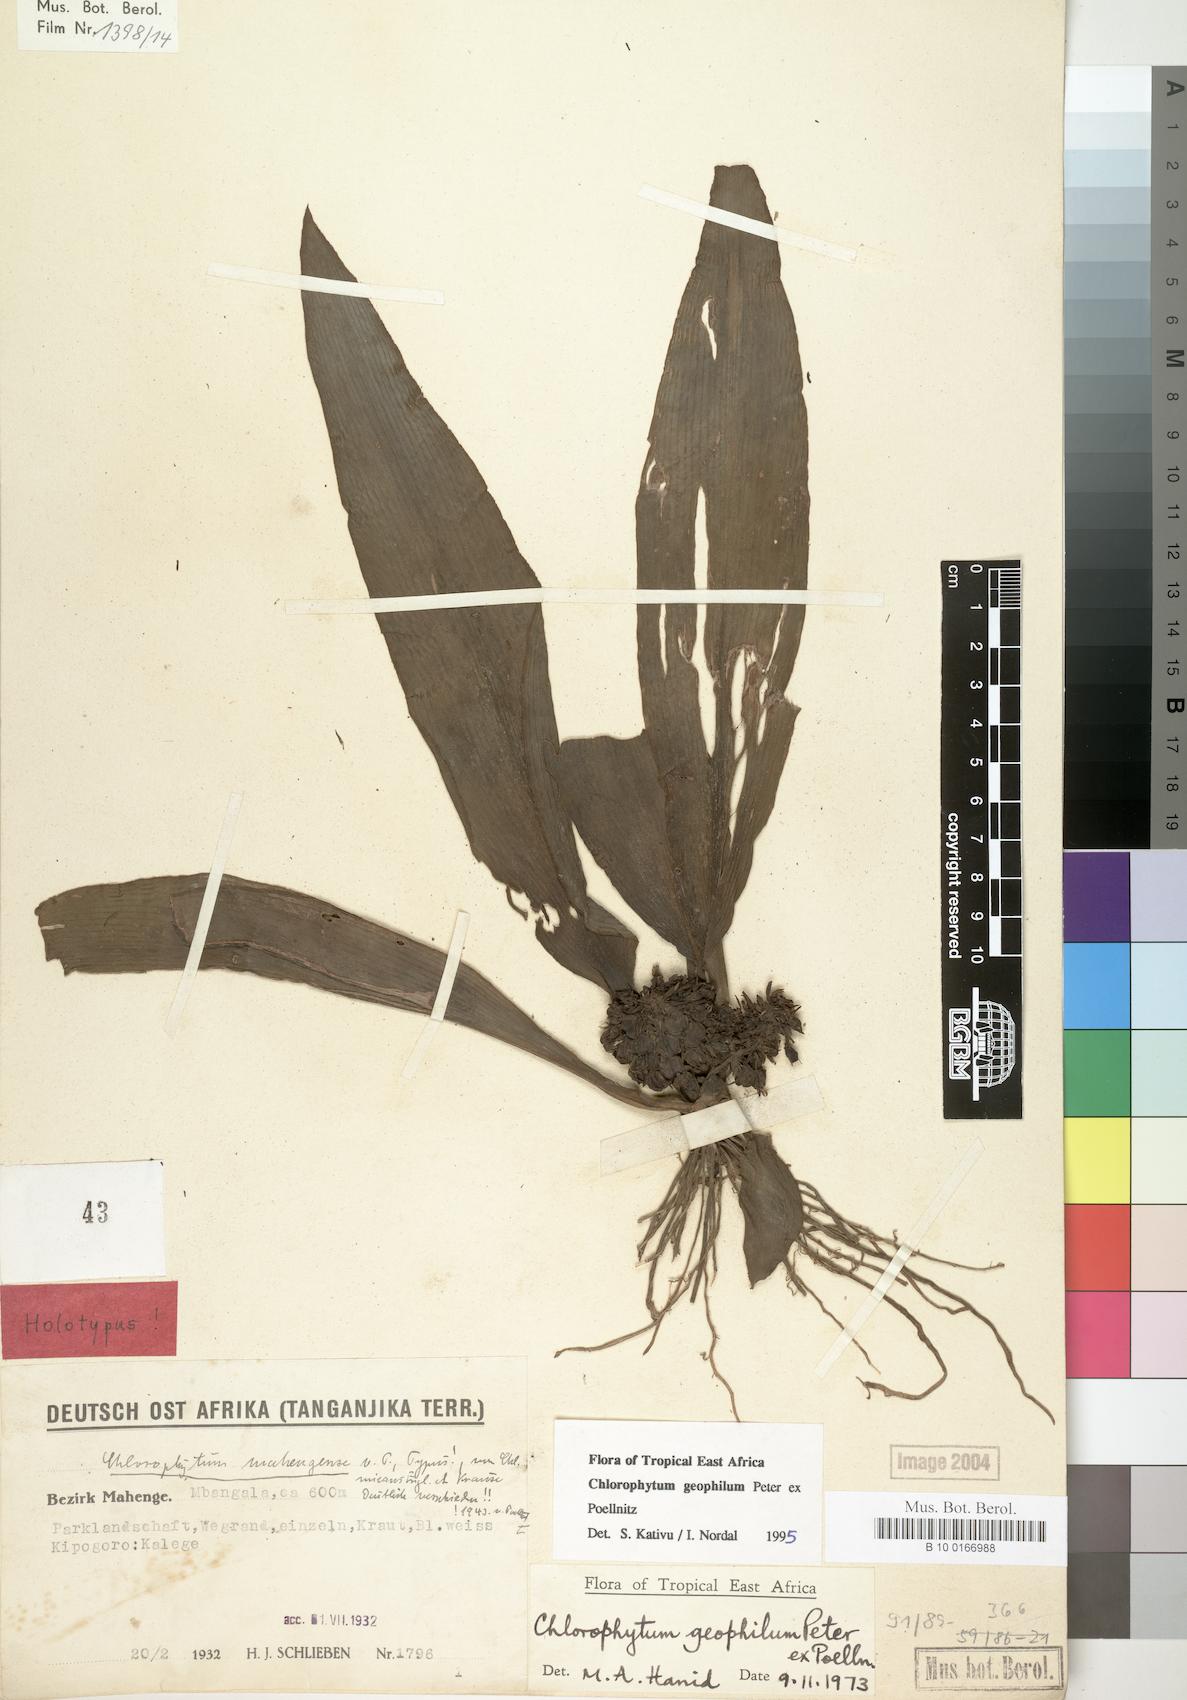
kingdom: Plantae
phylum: Tracheophyta
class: Liliopsida
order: Asparagales
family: Asparagaceae
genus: Chlorophytum
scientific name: Chlorophytum geophilum
